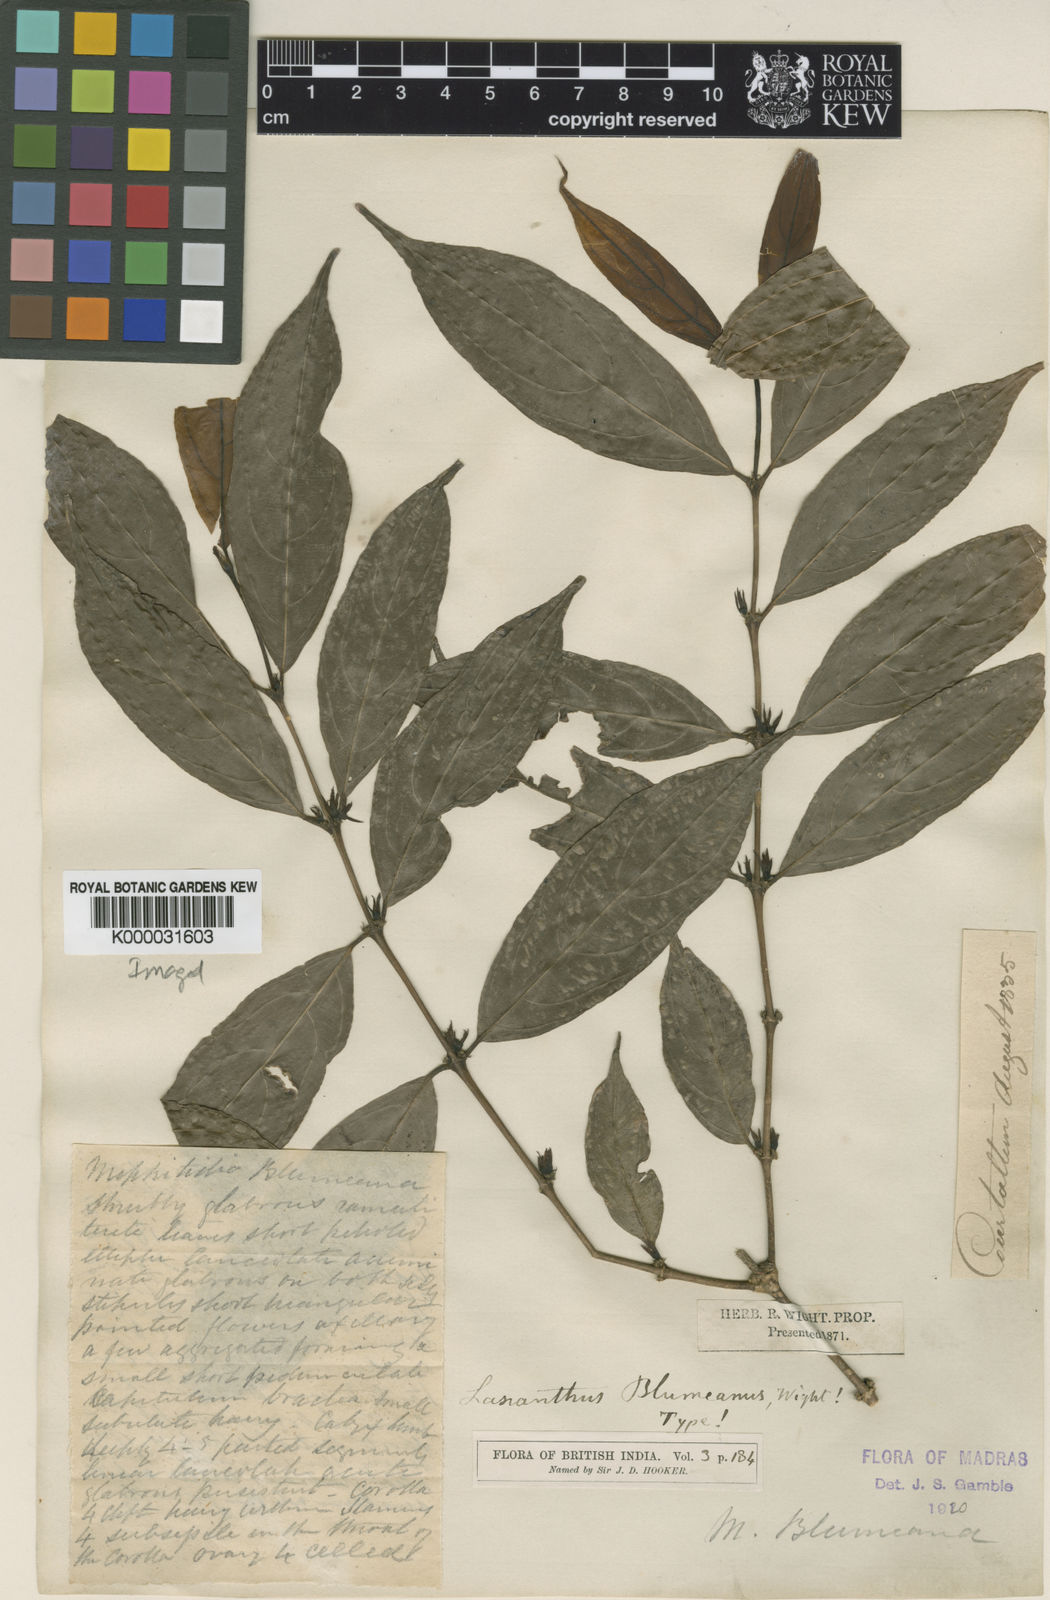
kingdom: Plantae
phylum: Tracheophyta
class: Magnoliopsida
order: Gentianales
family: Rubiaceae
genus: Lasianthus
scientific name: Lasianthus blumeanus
